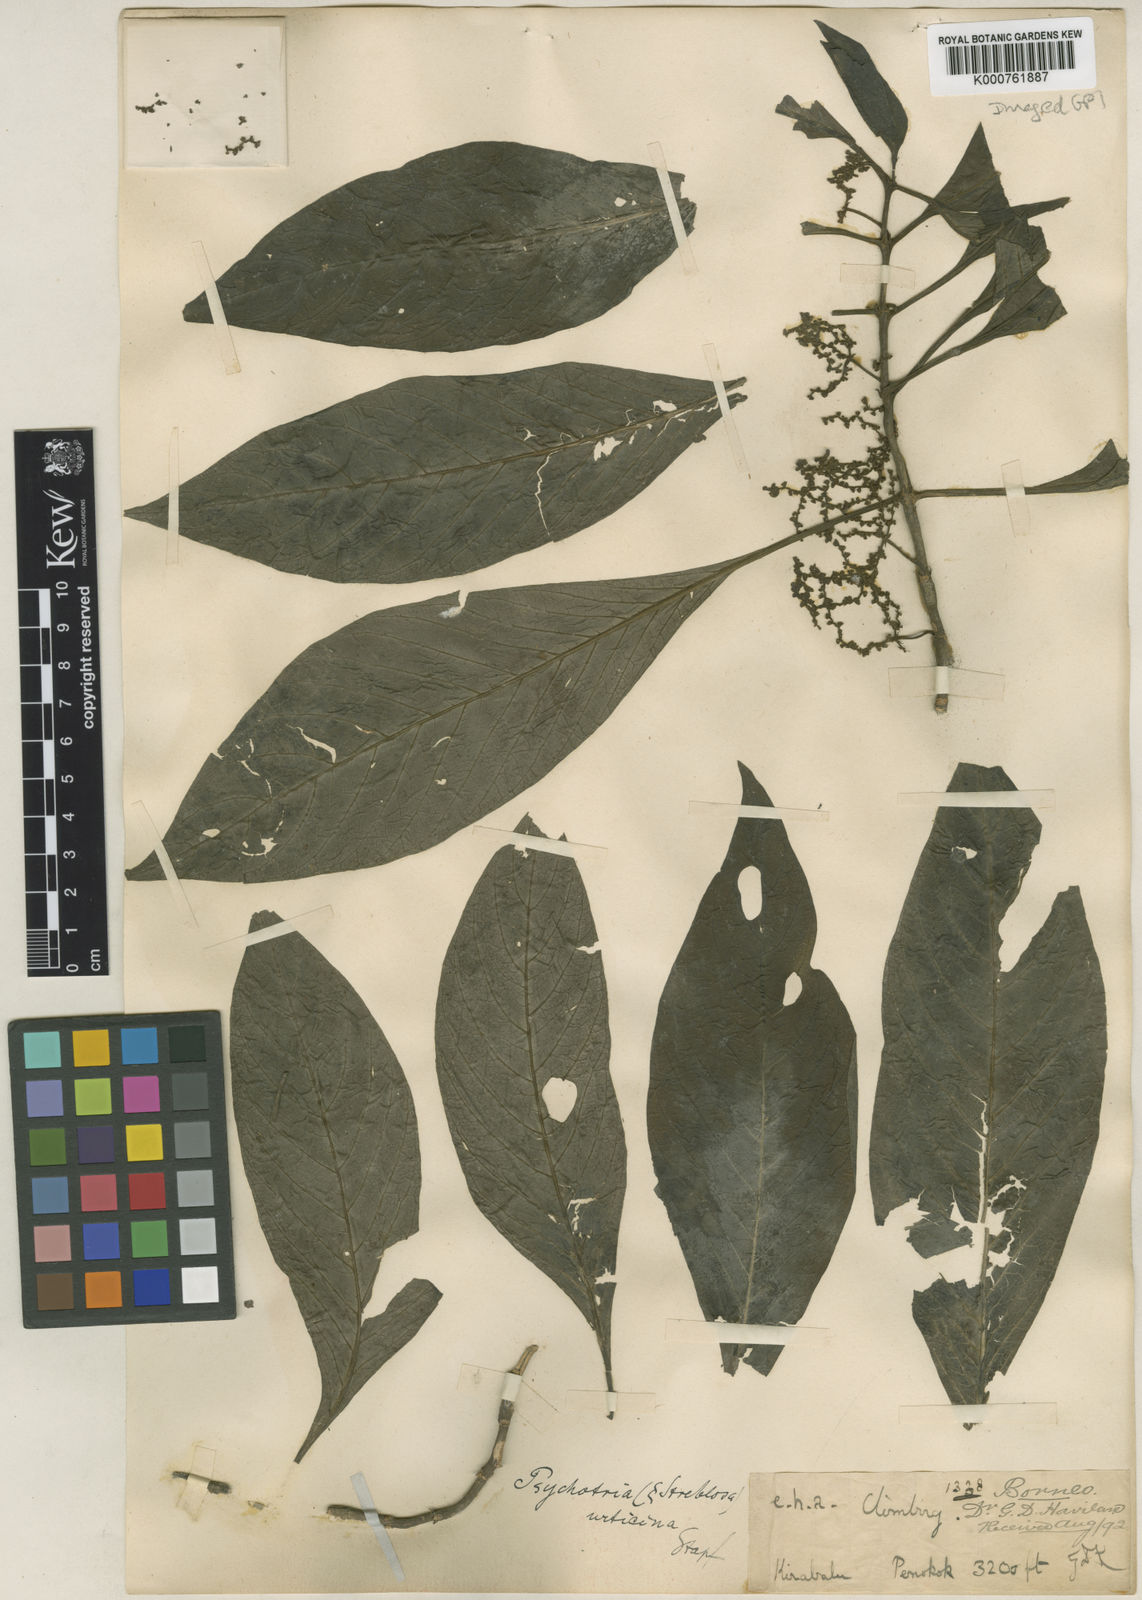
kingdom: Plantae
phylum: Tracheophyta
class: Magnoliopsida
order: Gentianales
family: Rubiaceae
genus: Streblosa
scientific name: Streblosa urticina
